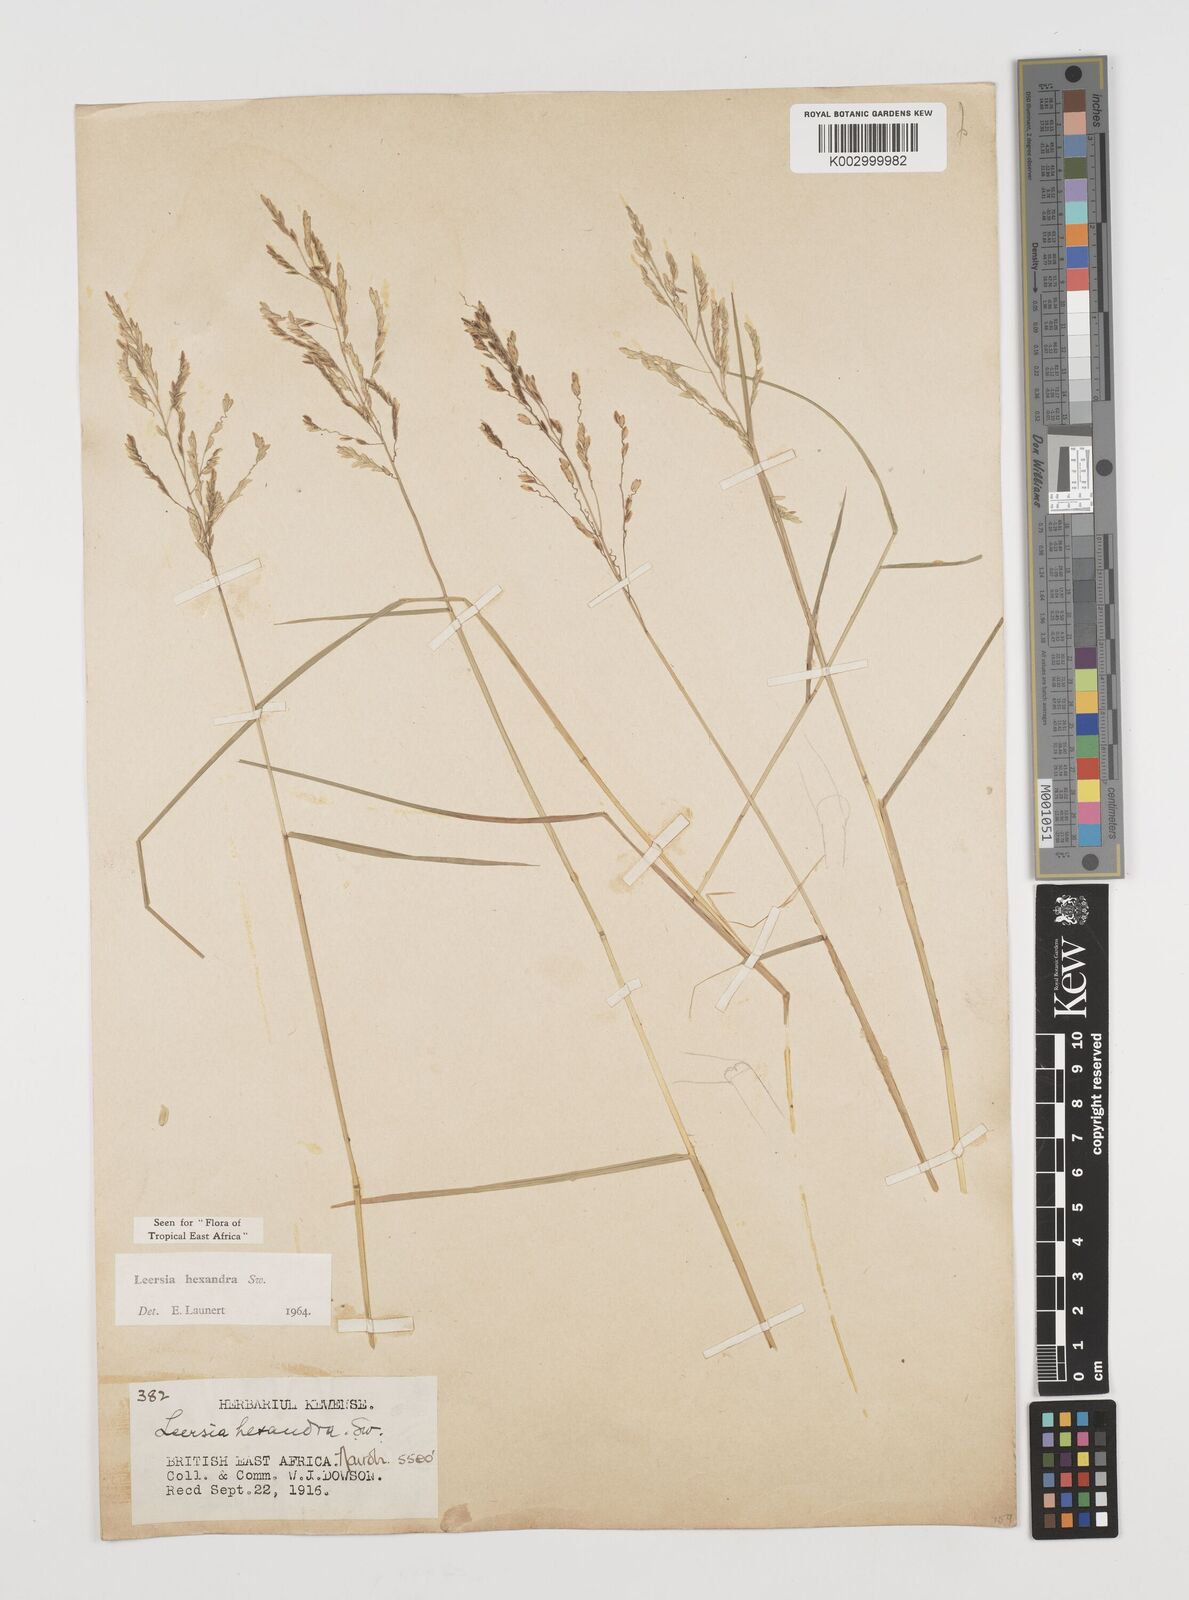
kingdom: Plantae
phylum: Tracheophyta
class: Liliopsida
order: Poales
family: Poaceae
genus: Leersia
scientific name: Leersia hexandra
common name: Southern cut grass
